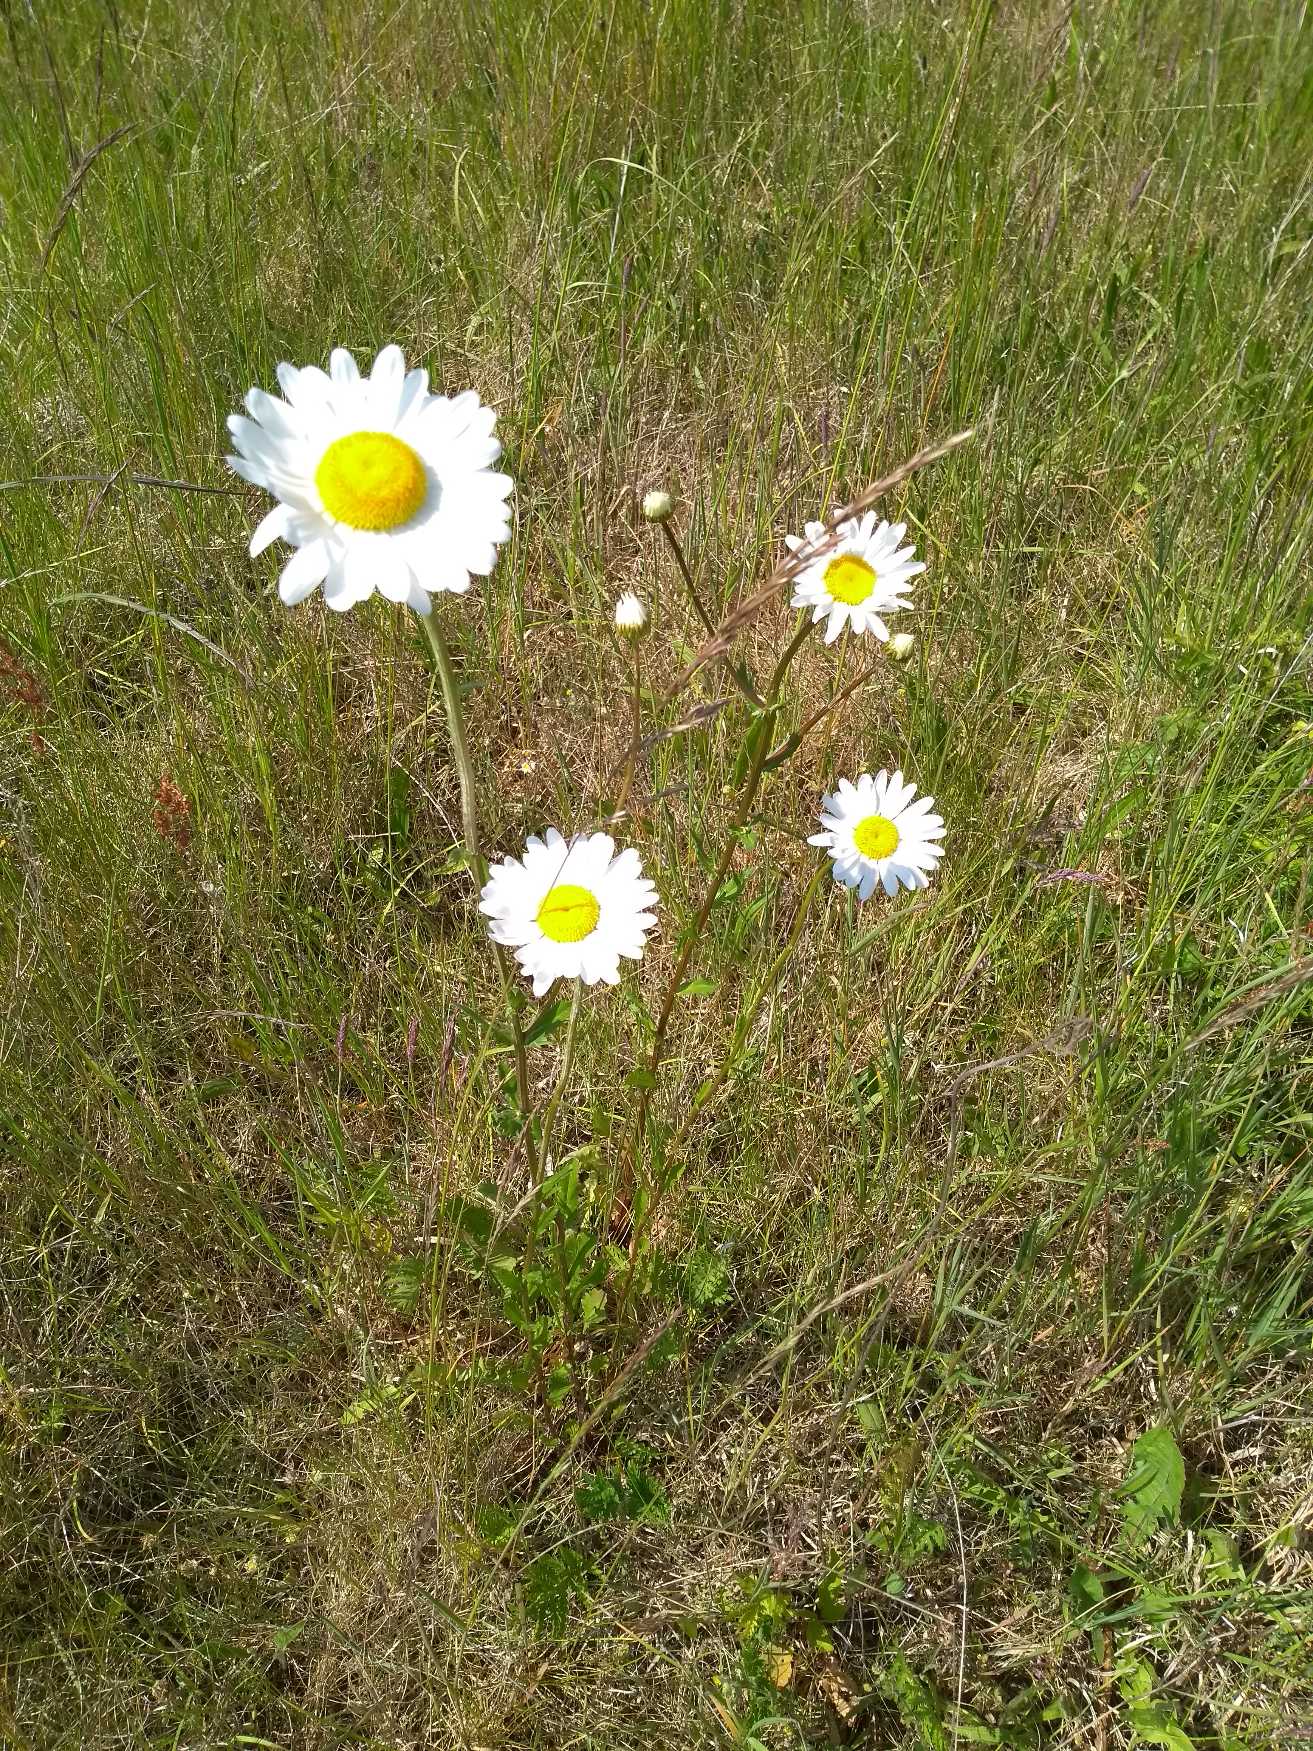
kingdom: Plantae
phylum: Tracheophyta
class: Magnoliopsida
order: Asterales
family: Asteraceae
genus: Leucanthemum
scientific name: Leucanthemum vulgare
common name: Hvid okseøje
